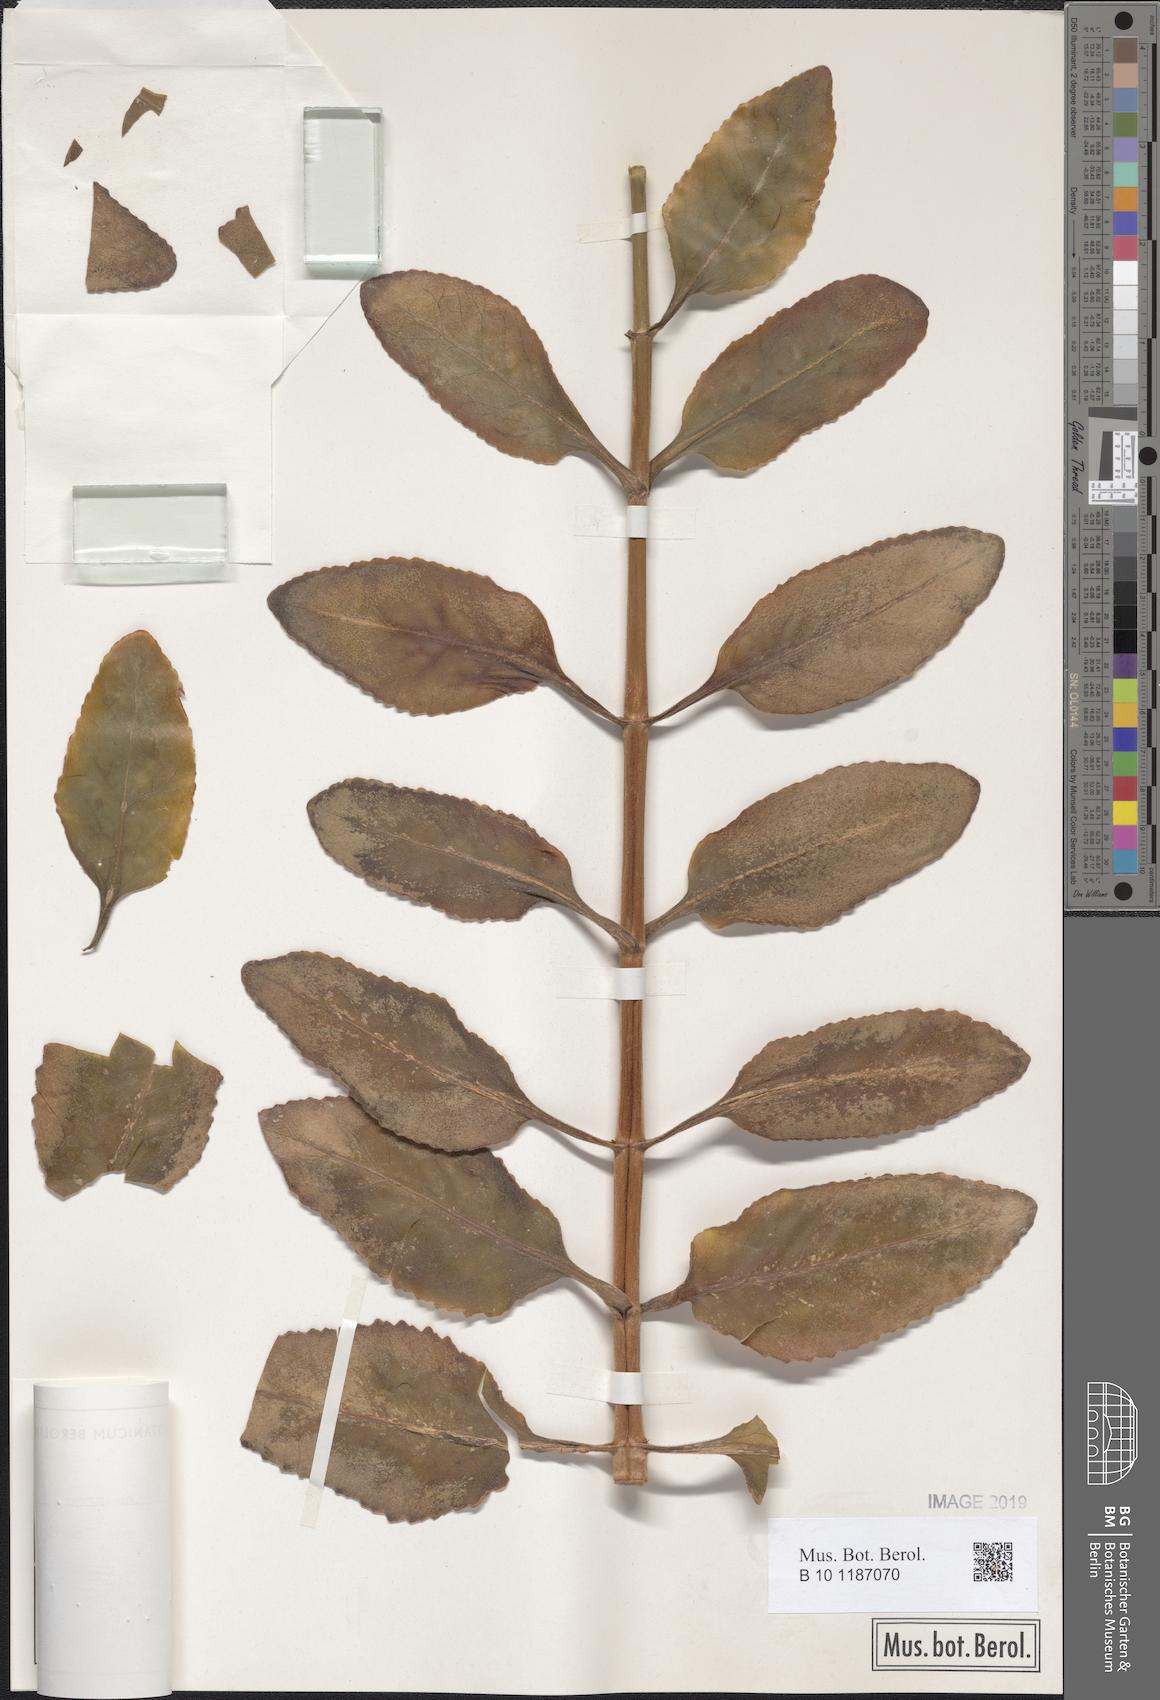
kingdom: Plantae
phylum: Tracheophyta
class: Magnoliopsida
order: Saxifragales
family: Crassulaceae
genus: Kalanchoe
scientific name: Kalanchoe
